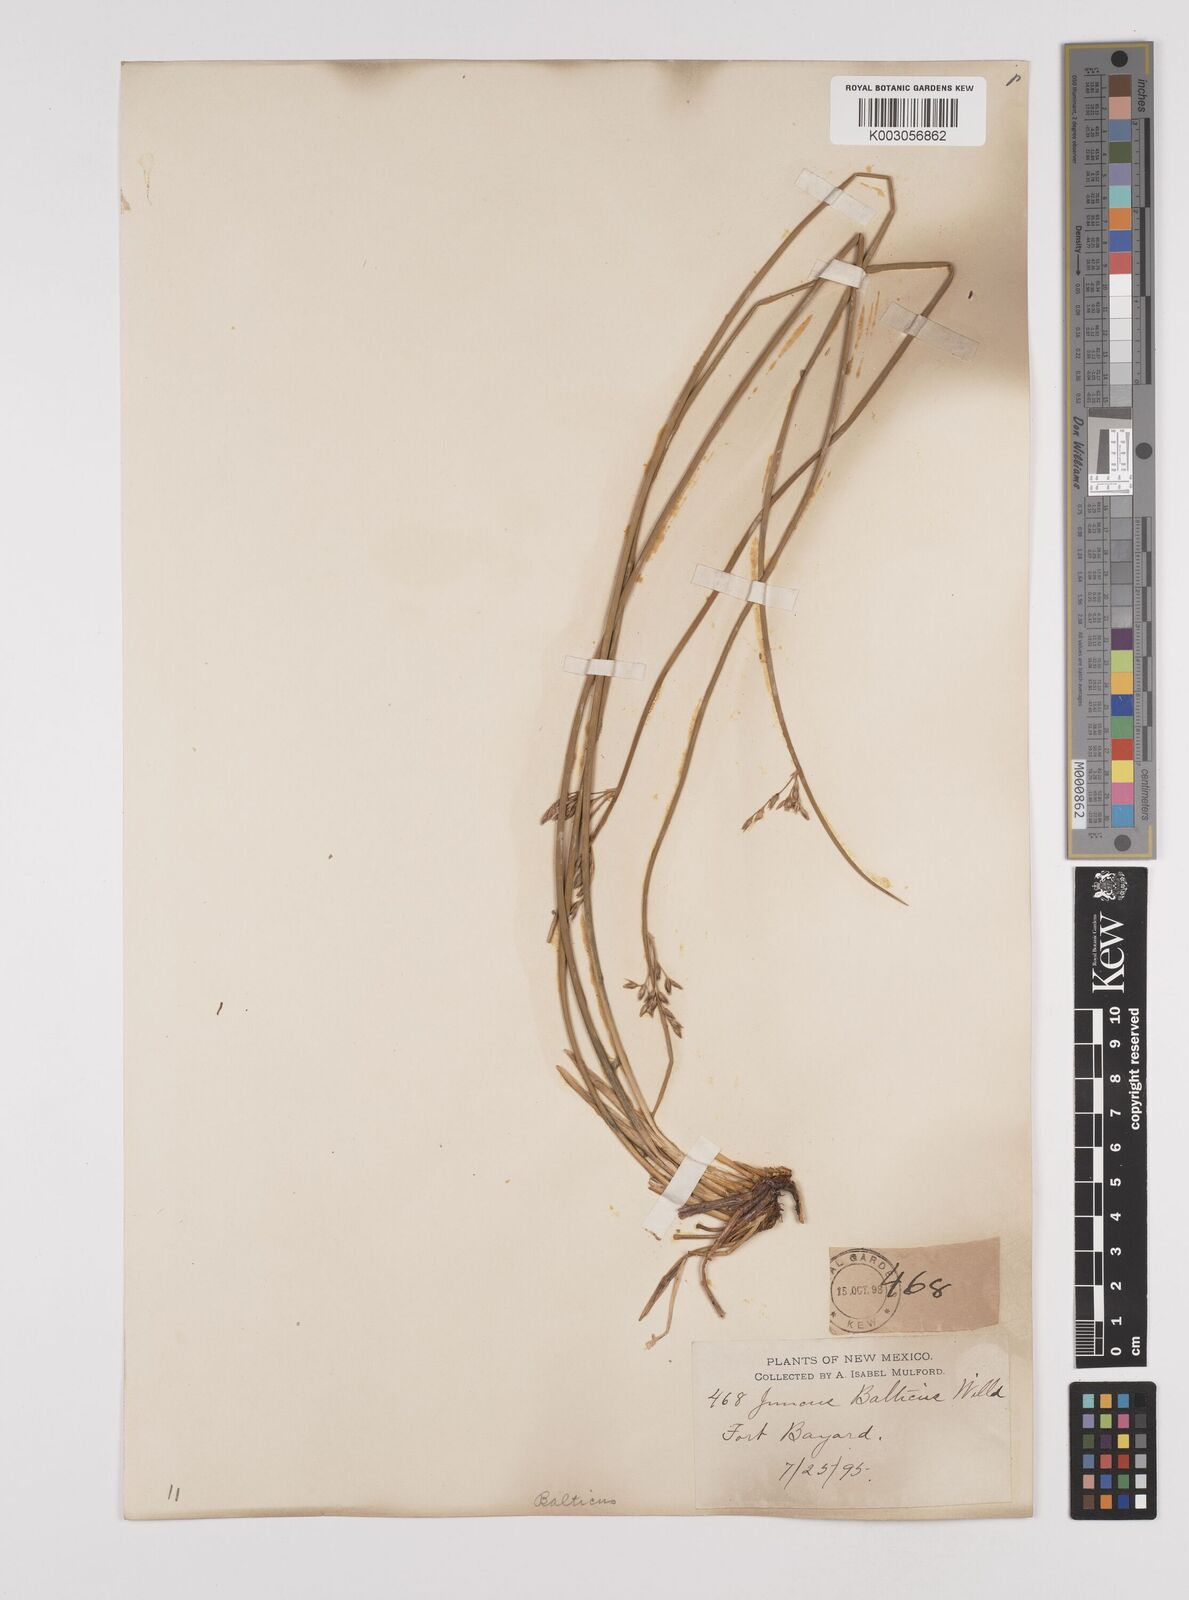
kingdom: Plantae
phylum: Tracheophyta
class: Liliopsida
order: Poales
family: Juncaceae
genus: Juncus
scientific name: Juncus balticus
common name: Baltic rush
